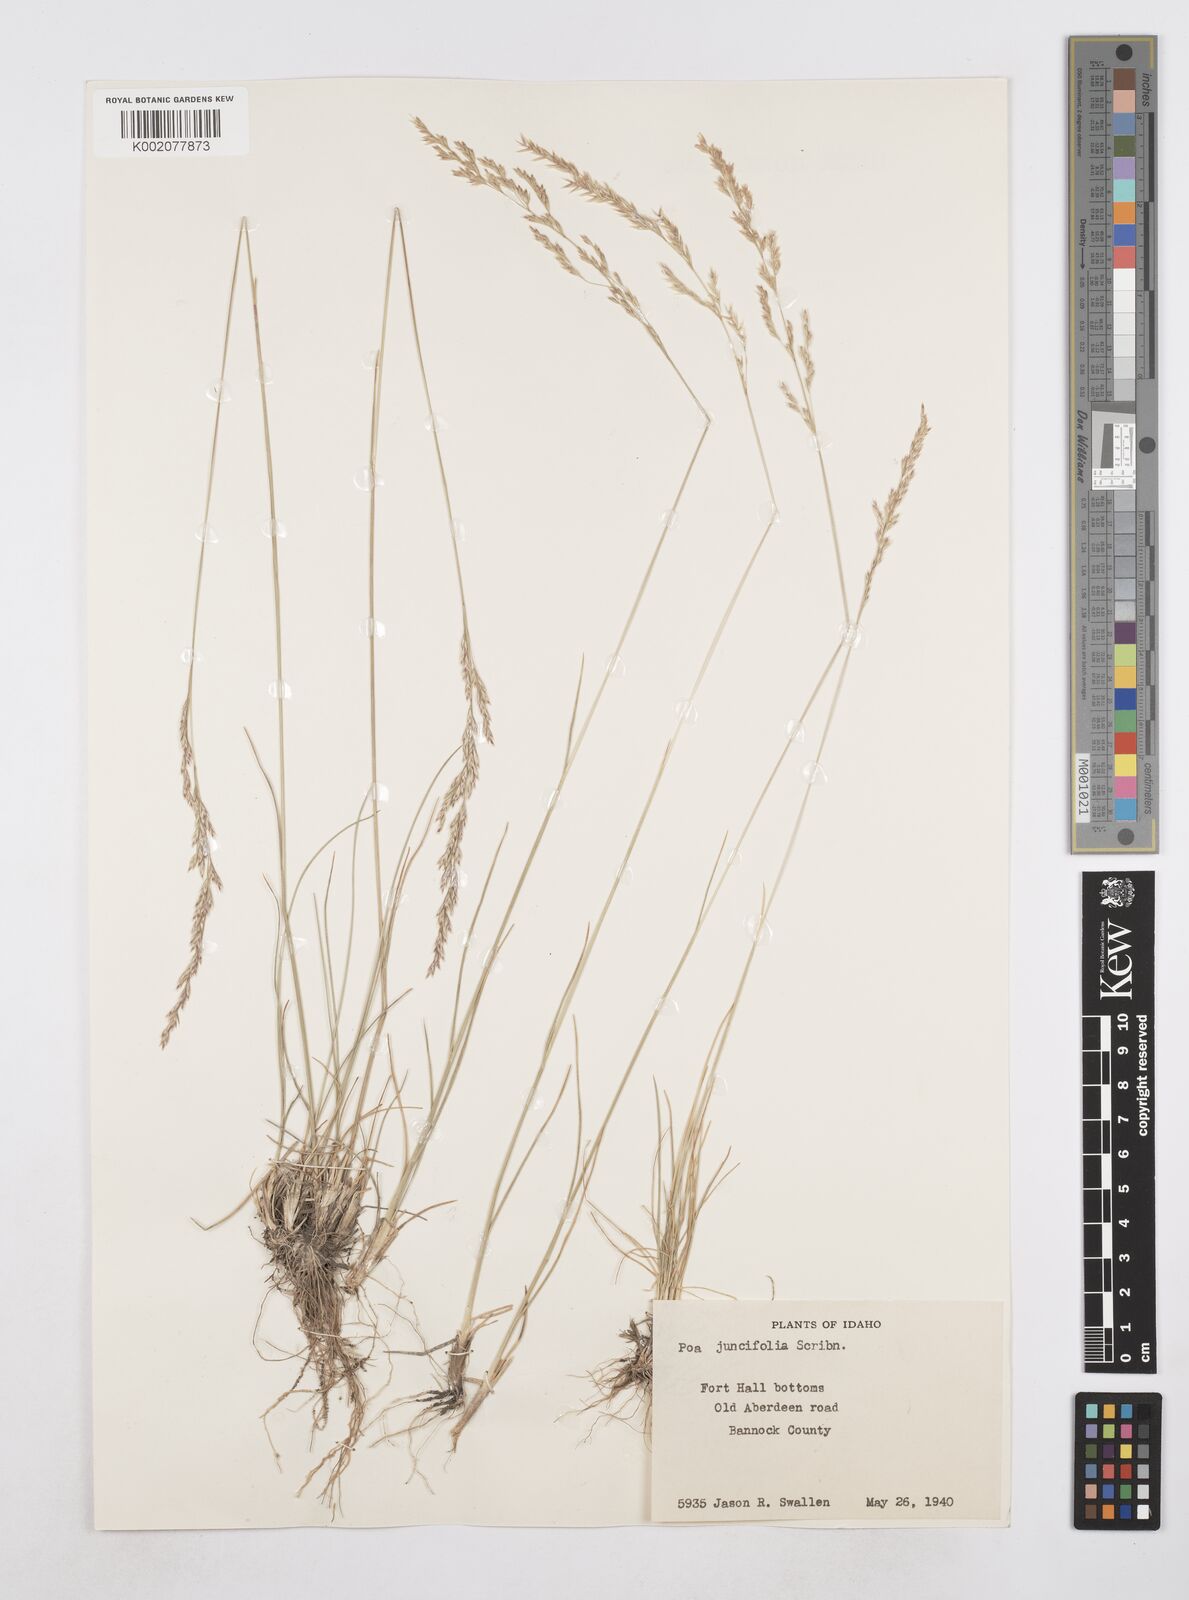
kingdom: Plantae
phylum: Tracheophyta
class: Liliopsida
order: Poales
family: Poaceae
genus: Poa
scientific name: Poa secunda
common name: Sandberg bluegrass
